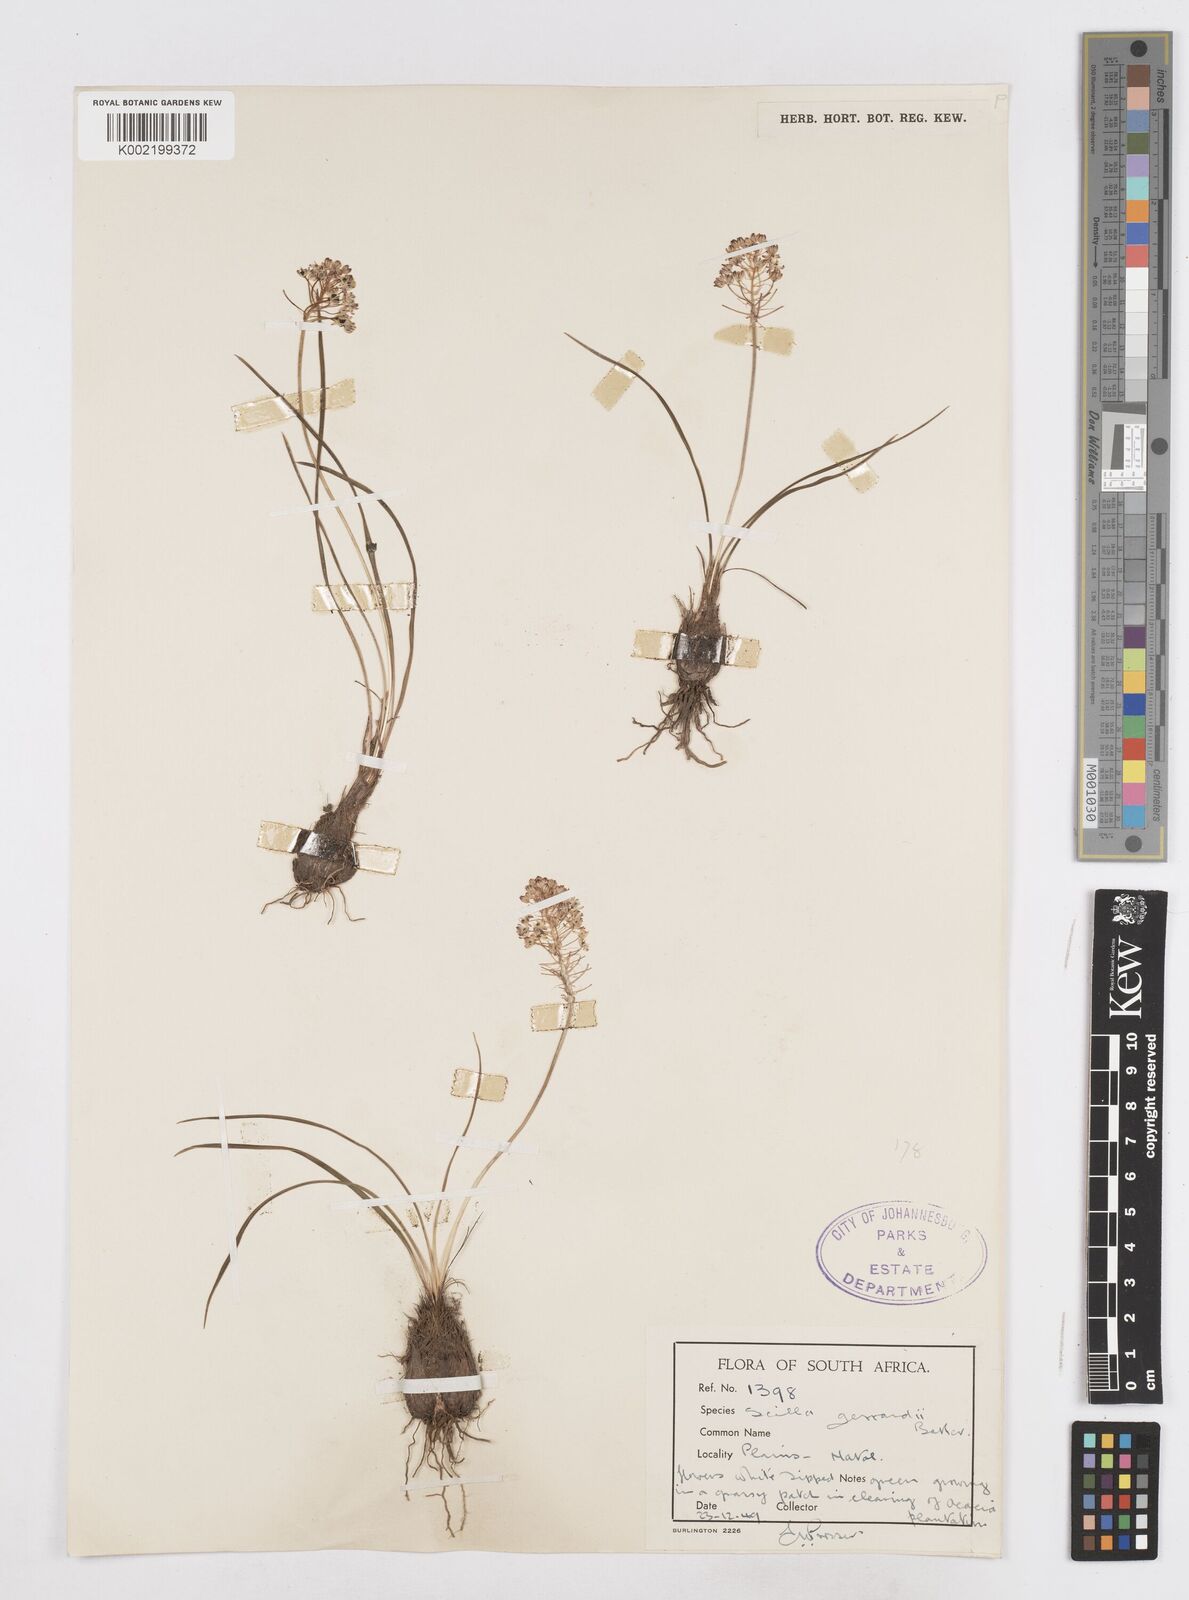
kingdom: Plantae
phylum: Tracheophyta
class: Liliopsida
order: Asparagales
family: Asparagaceae
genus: Schizocarphus
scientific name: Schizocarphus nervosus
